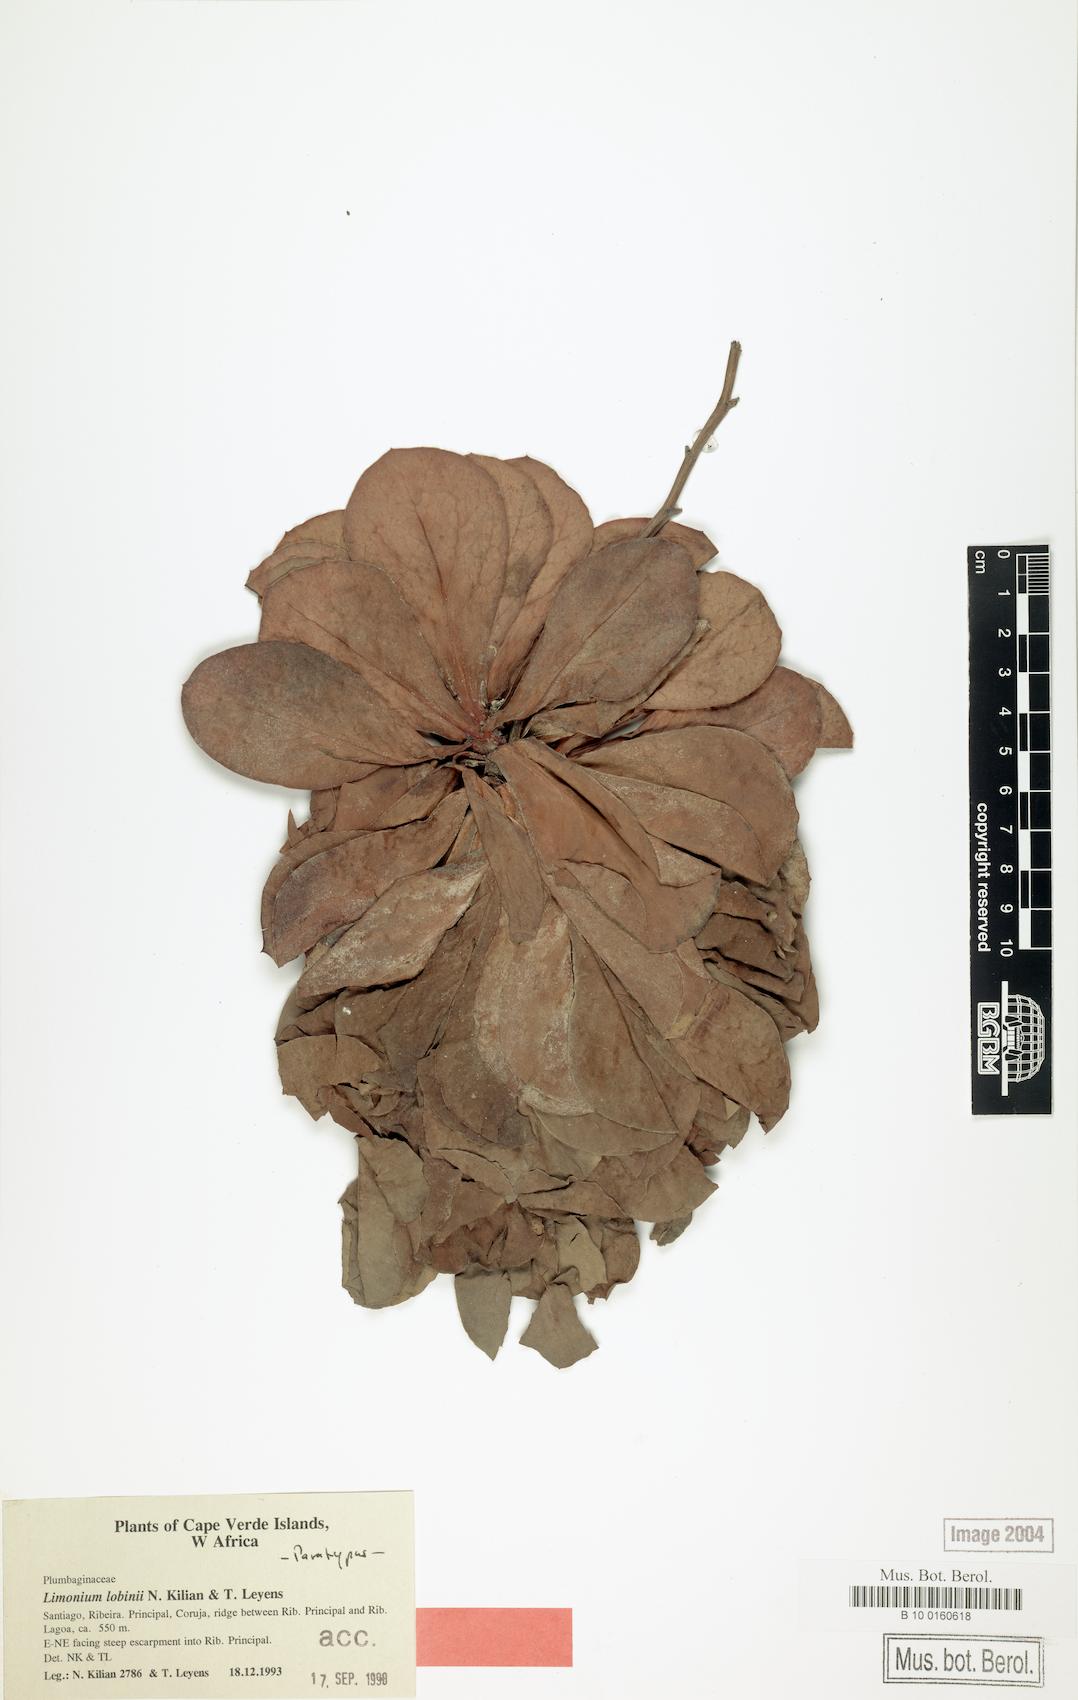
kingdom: Plantae
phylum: Tracheophyta
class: Magnoliopsida
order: Caryophyllales
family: Plumbaginaceae
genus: Limonium
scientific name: Limonium lobinii
